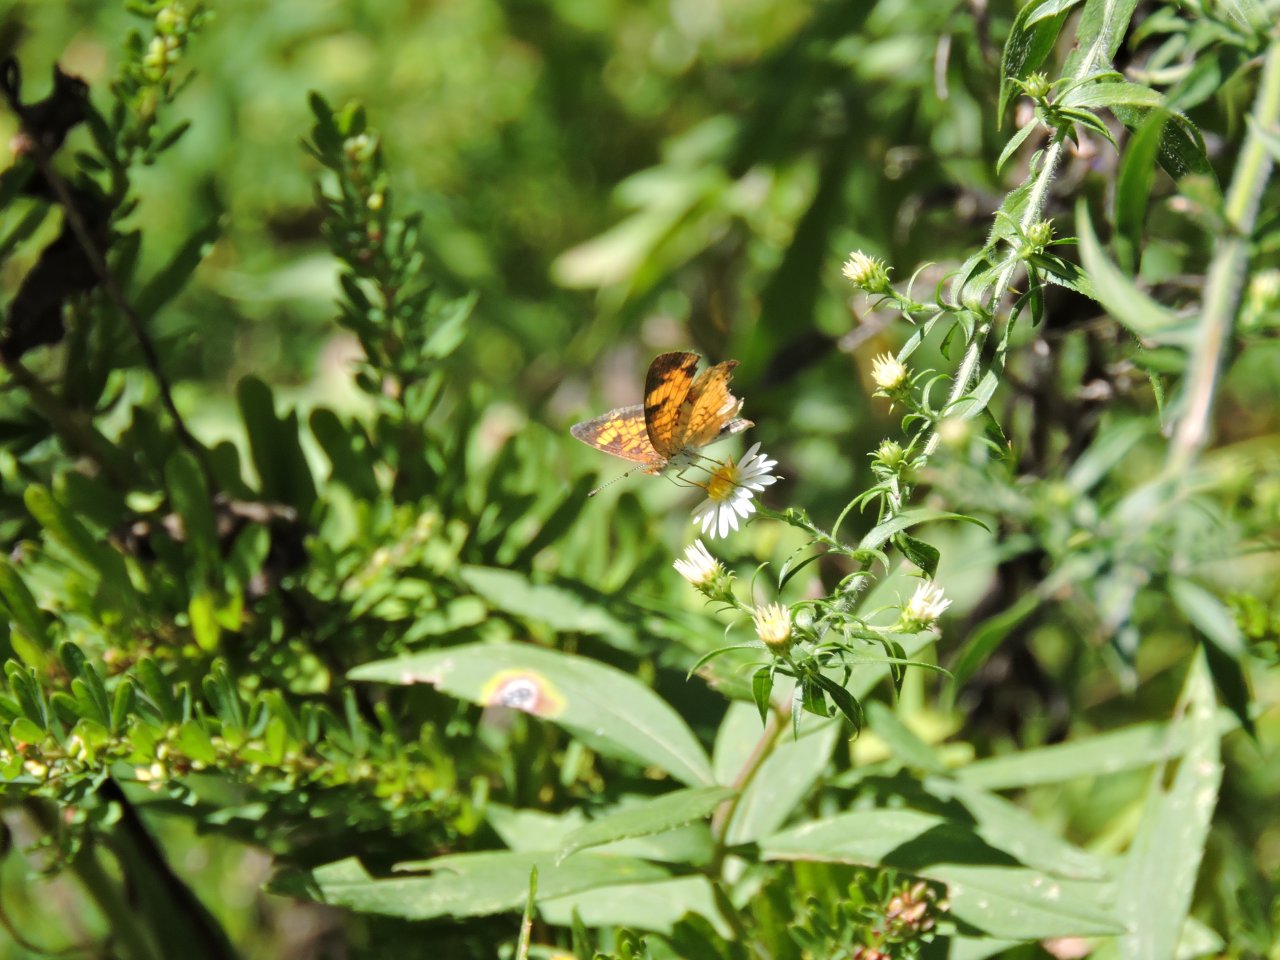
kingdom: Animalia
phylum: Arthropoda
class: Insecta
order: Lepidoptera
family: Nymphalidae
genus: Phyciodes
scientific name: Phyciodes tharos
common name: Pearl Crescent
